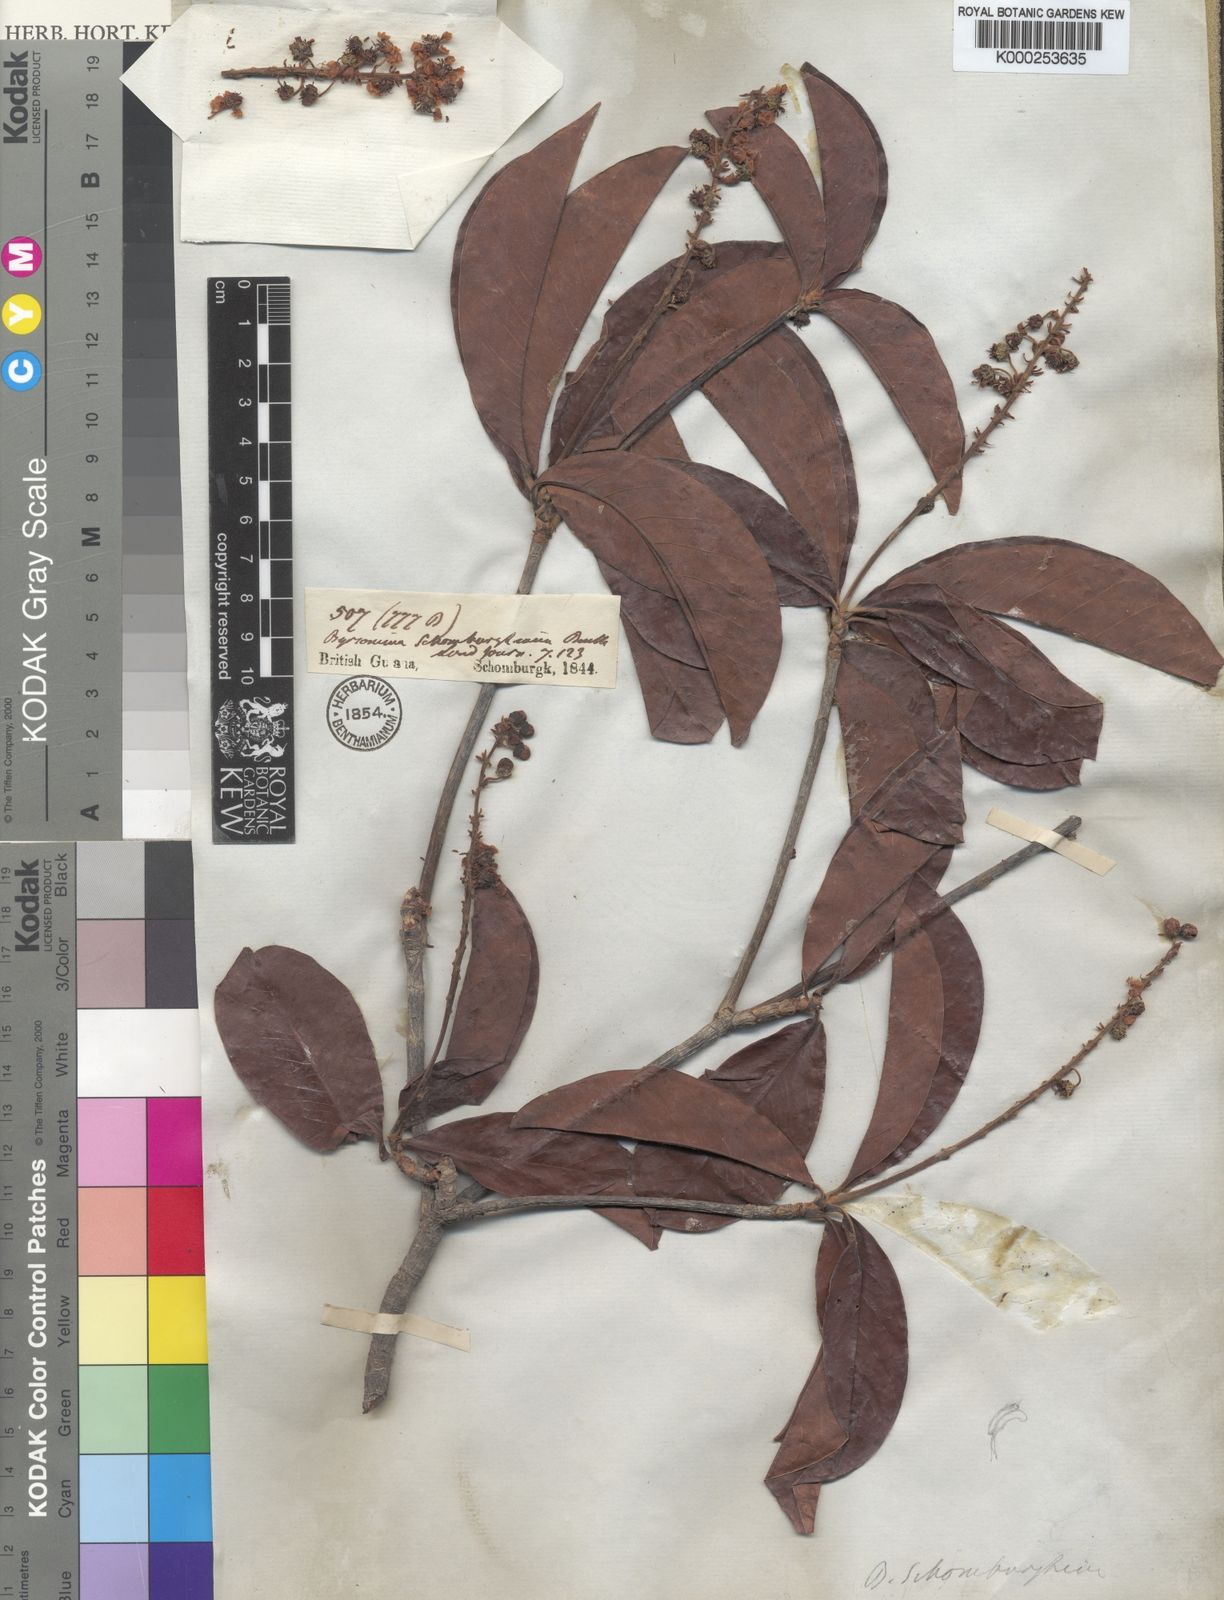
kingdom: Plantae
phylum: Tracheophyta
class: Magnoliopsida
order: Malpighiales
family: Malpighiaceae
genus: Byrsonima
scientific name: Byrsonima schomburgkiana
